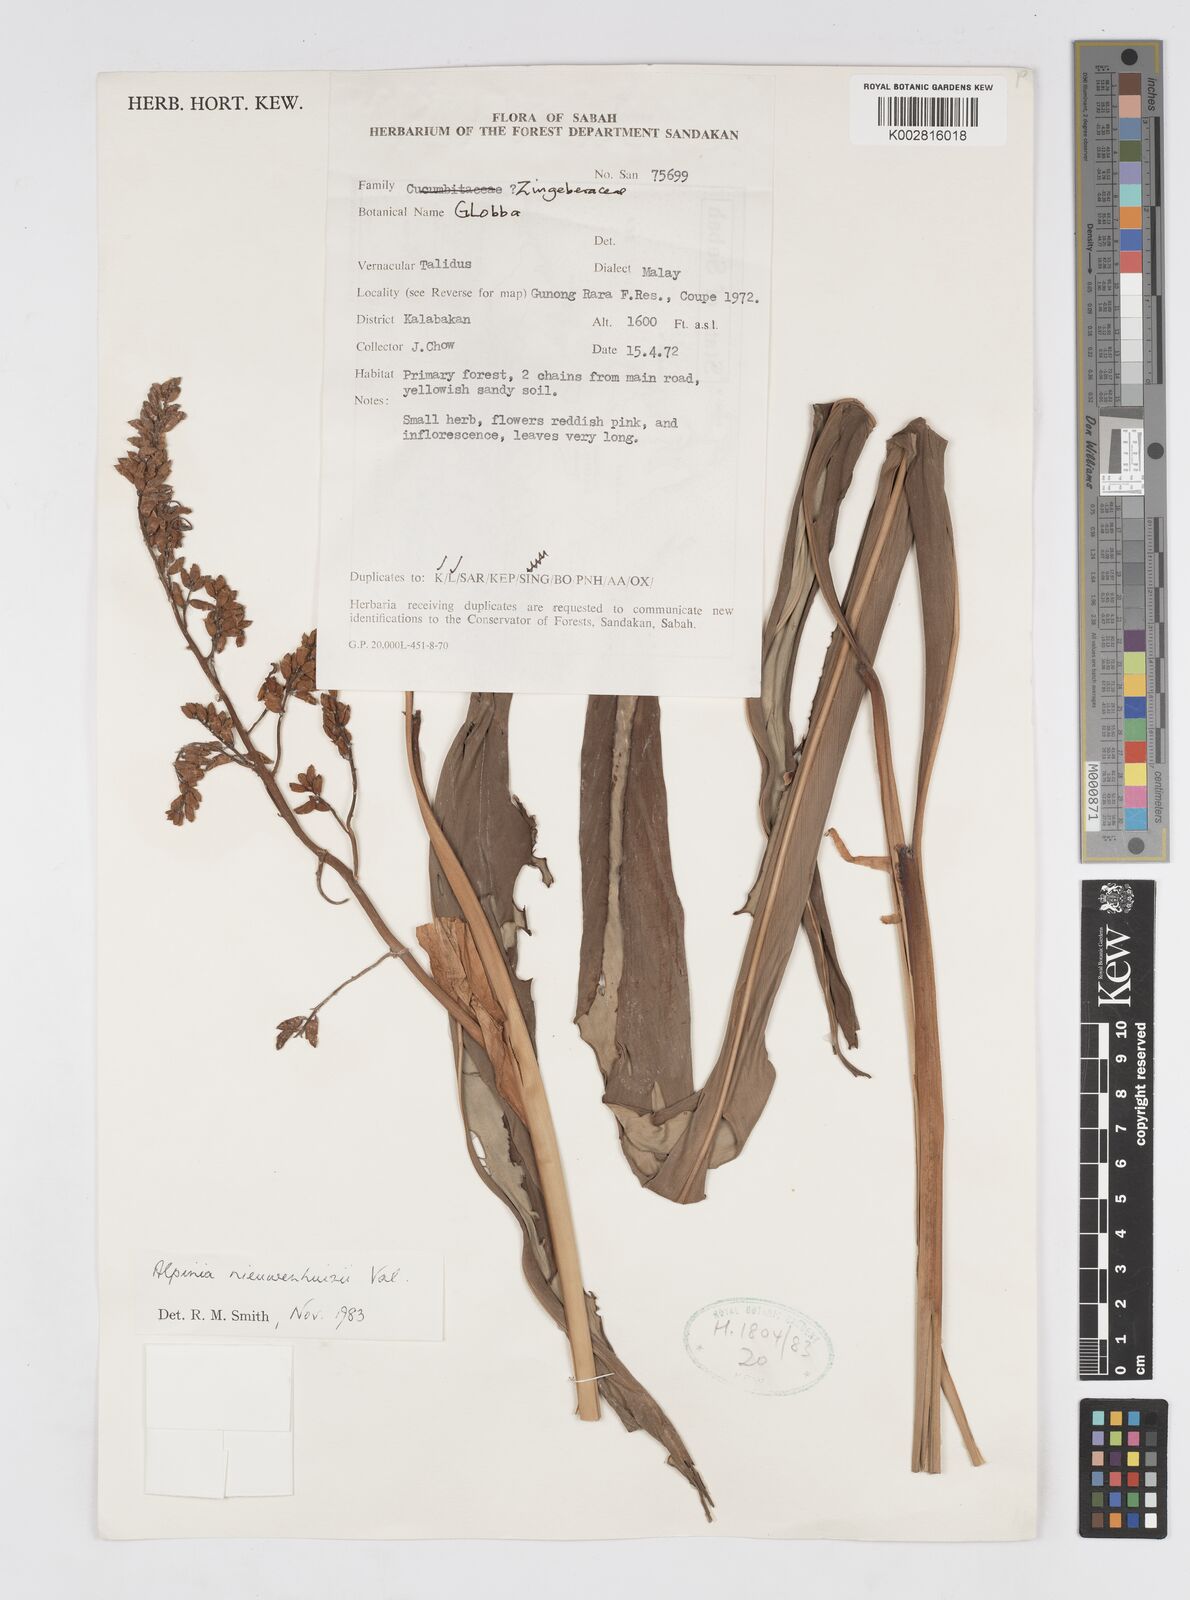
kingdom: Plantae
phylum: Tracheophyta
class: Liliopsida
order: Zingiberales
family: Zingiberaceae
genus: Alpinia
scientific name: Alpinia nieuwenhuizii
